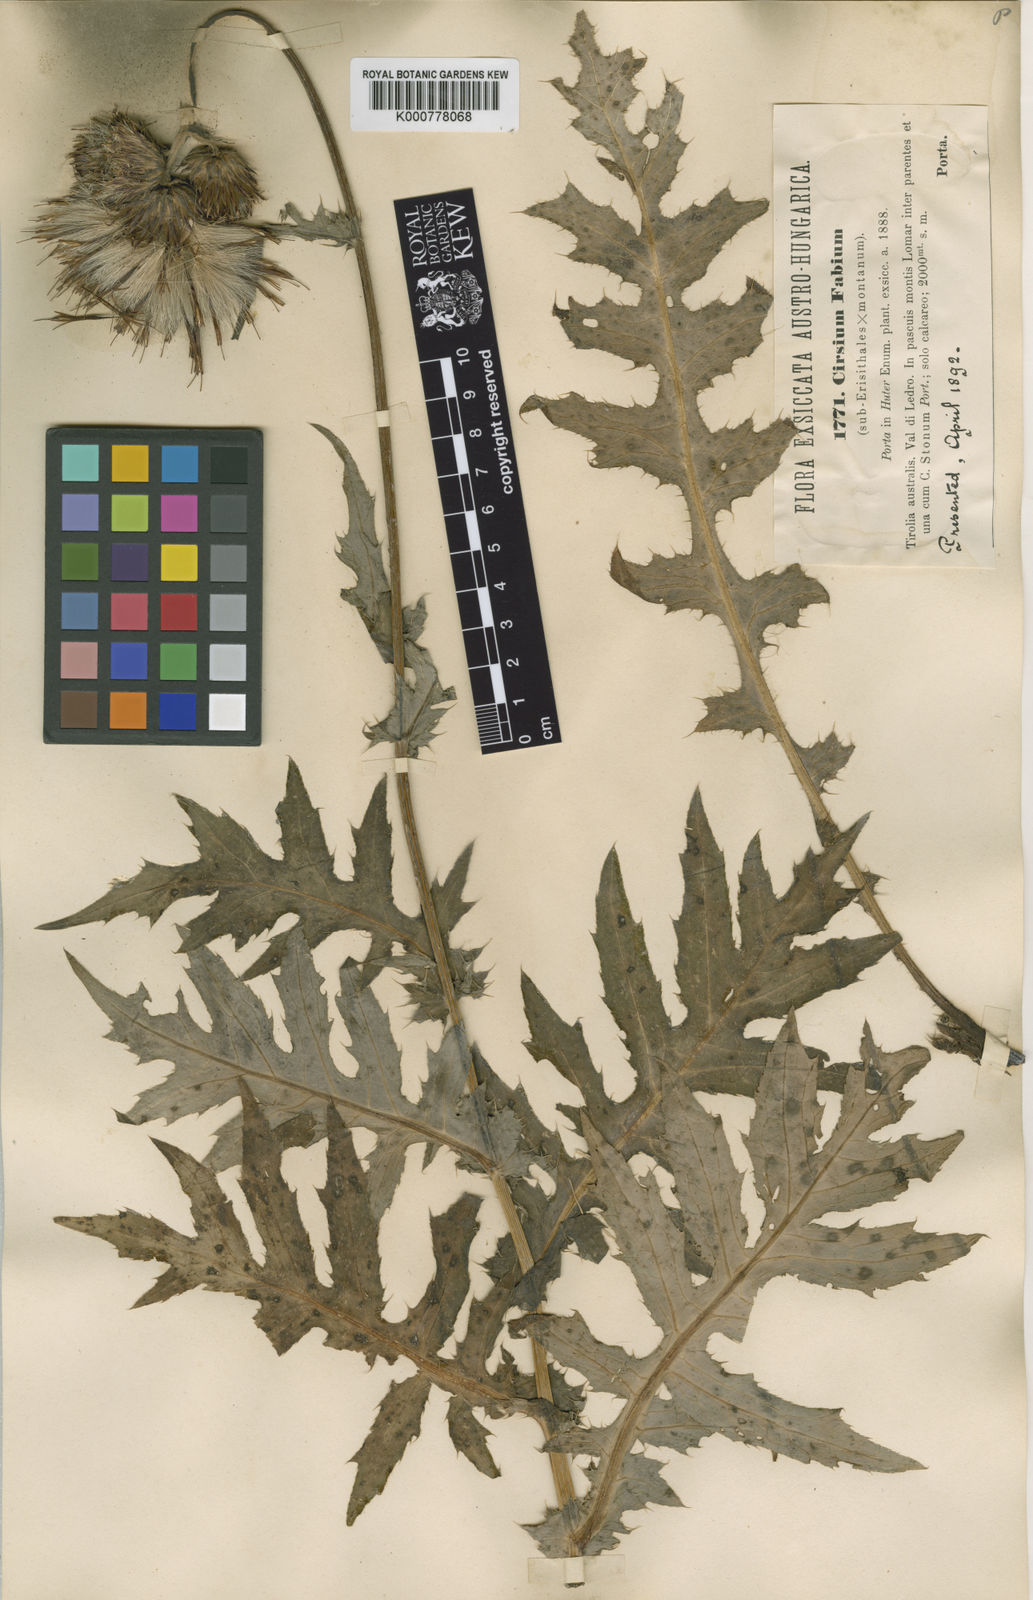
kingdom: Plantae
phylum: Tracheophyta
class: Magnoliopsida
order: Asterales
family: Asteraceae
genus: Cirsium
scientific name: Cirsium erisithales
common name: Yellow thistle
